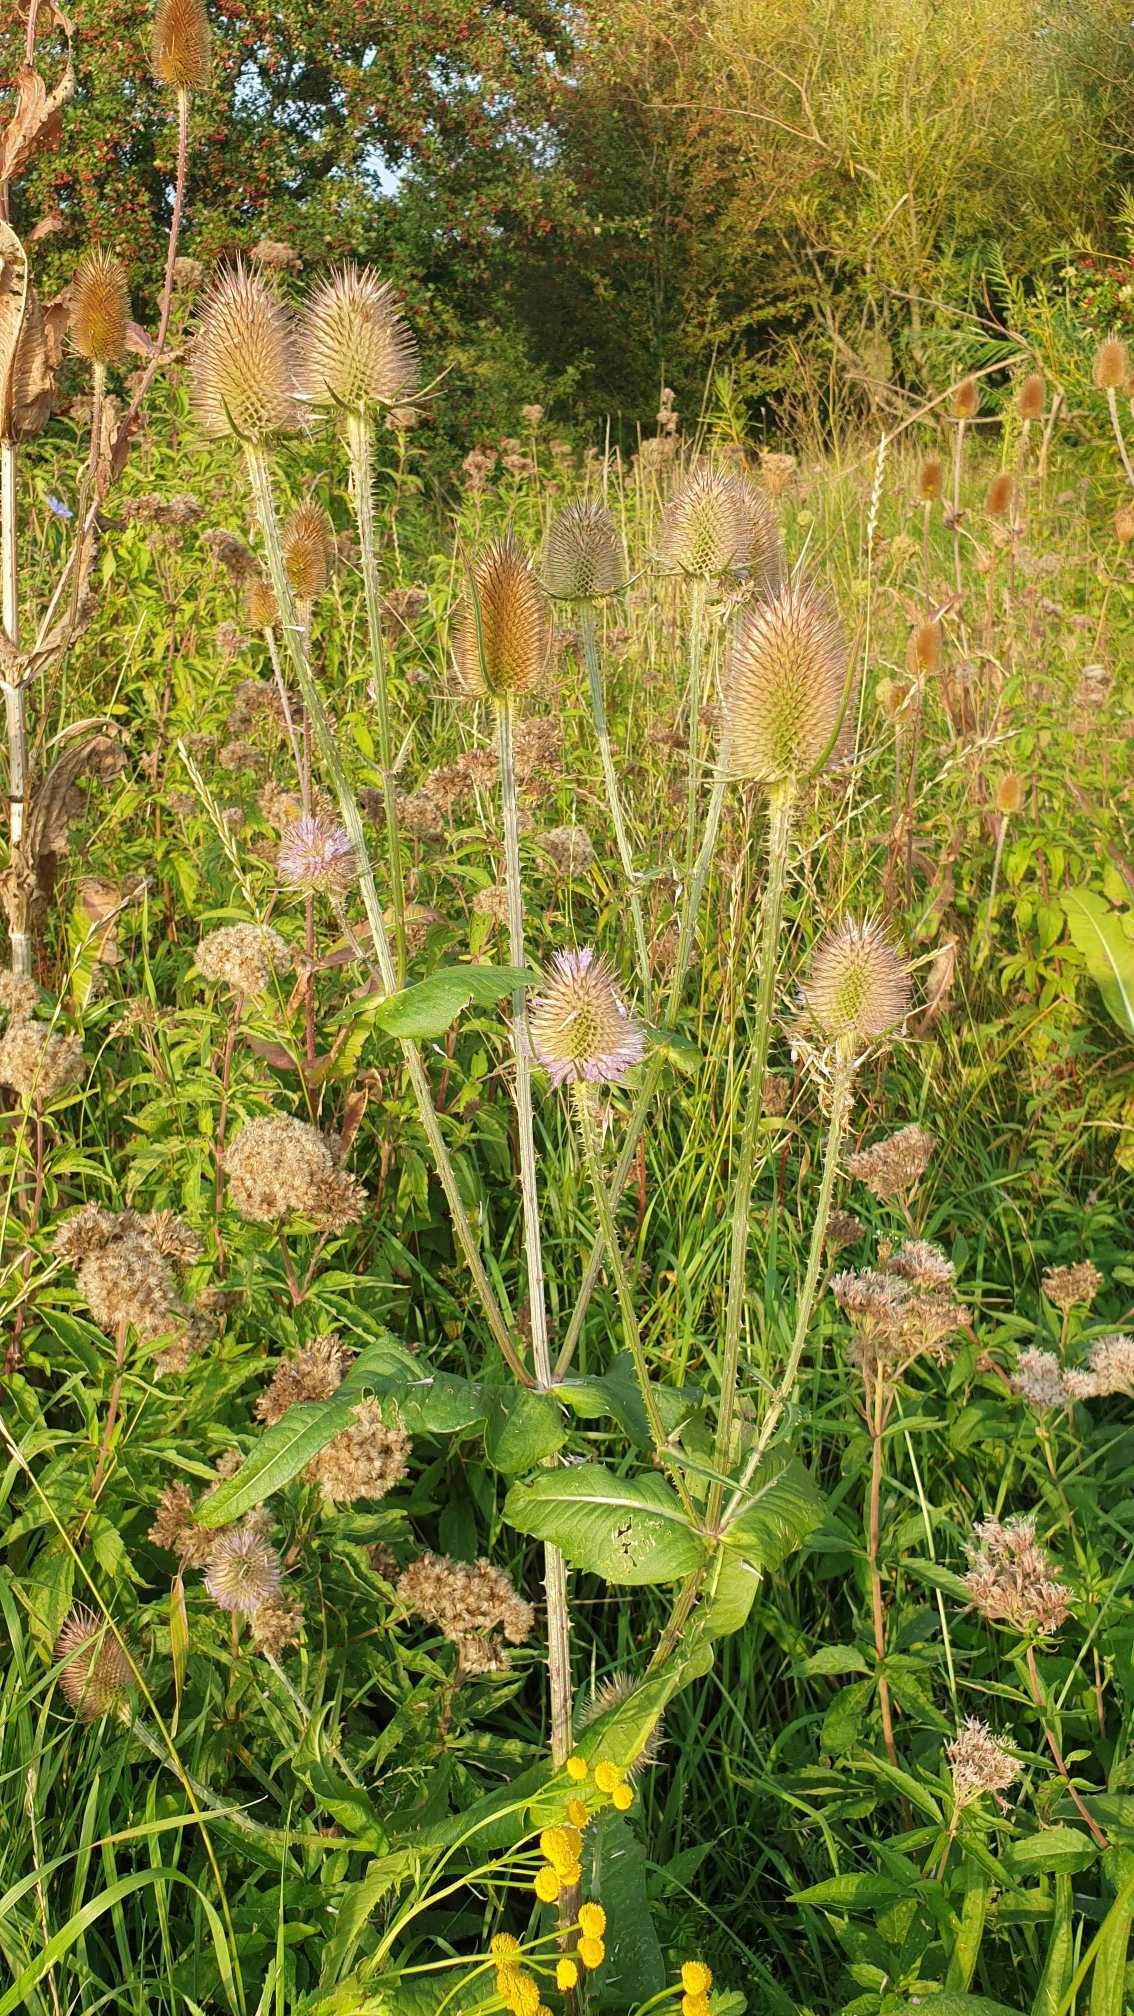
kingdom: Plantae
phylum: Tracheophyta
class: Magnoliopsida
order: Dipsacales
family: Caprifoliaceae
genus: Dipsacus
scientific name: Dipsacus fullonum
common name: Gærde-kartebolle
